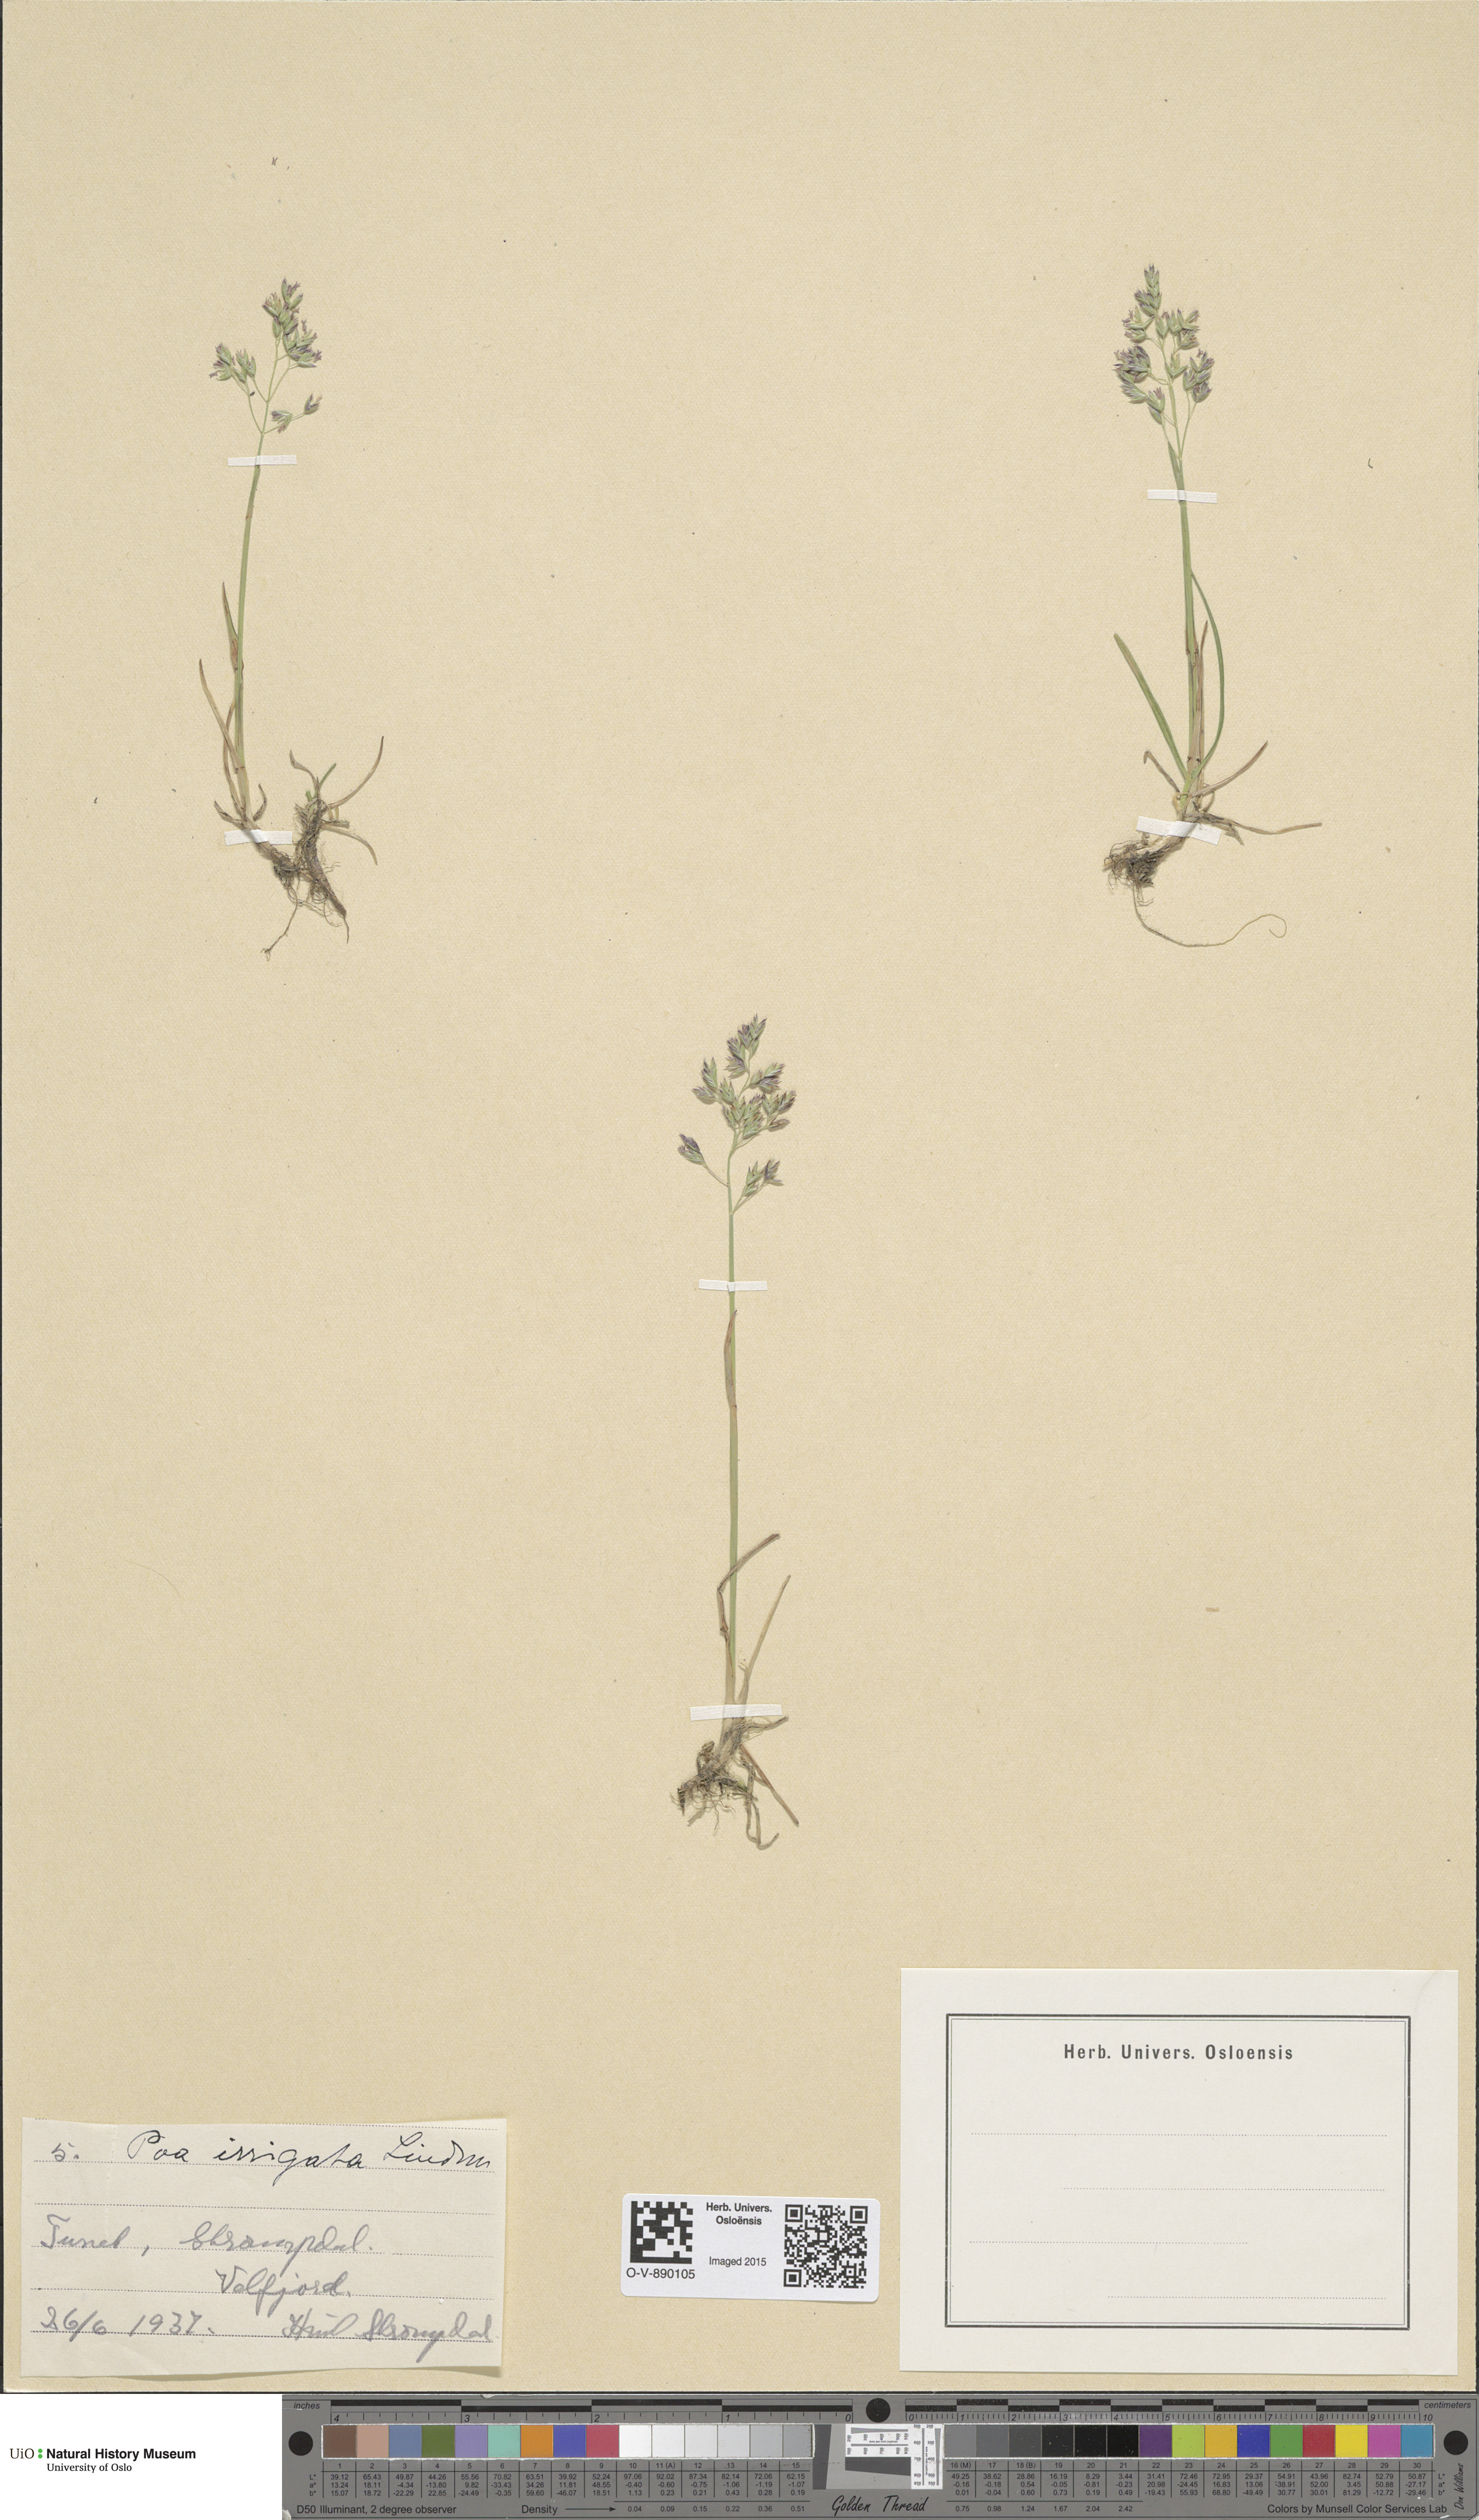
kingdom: Plantae
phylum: Tracheophyta
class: Liliopsida
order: Poales
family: Poaceae
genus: Poa
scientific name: Poa humilis
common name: Spreading meadow-grass
